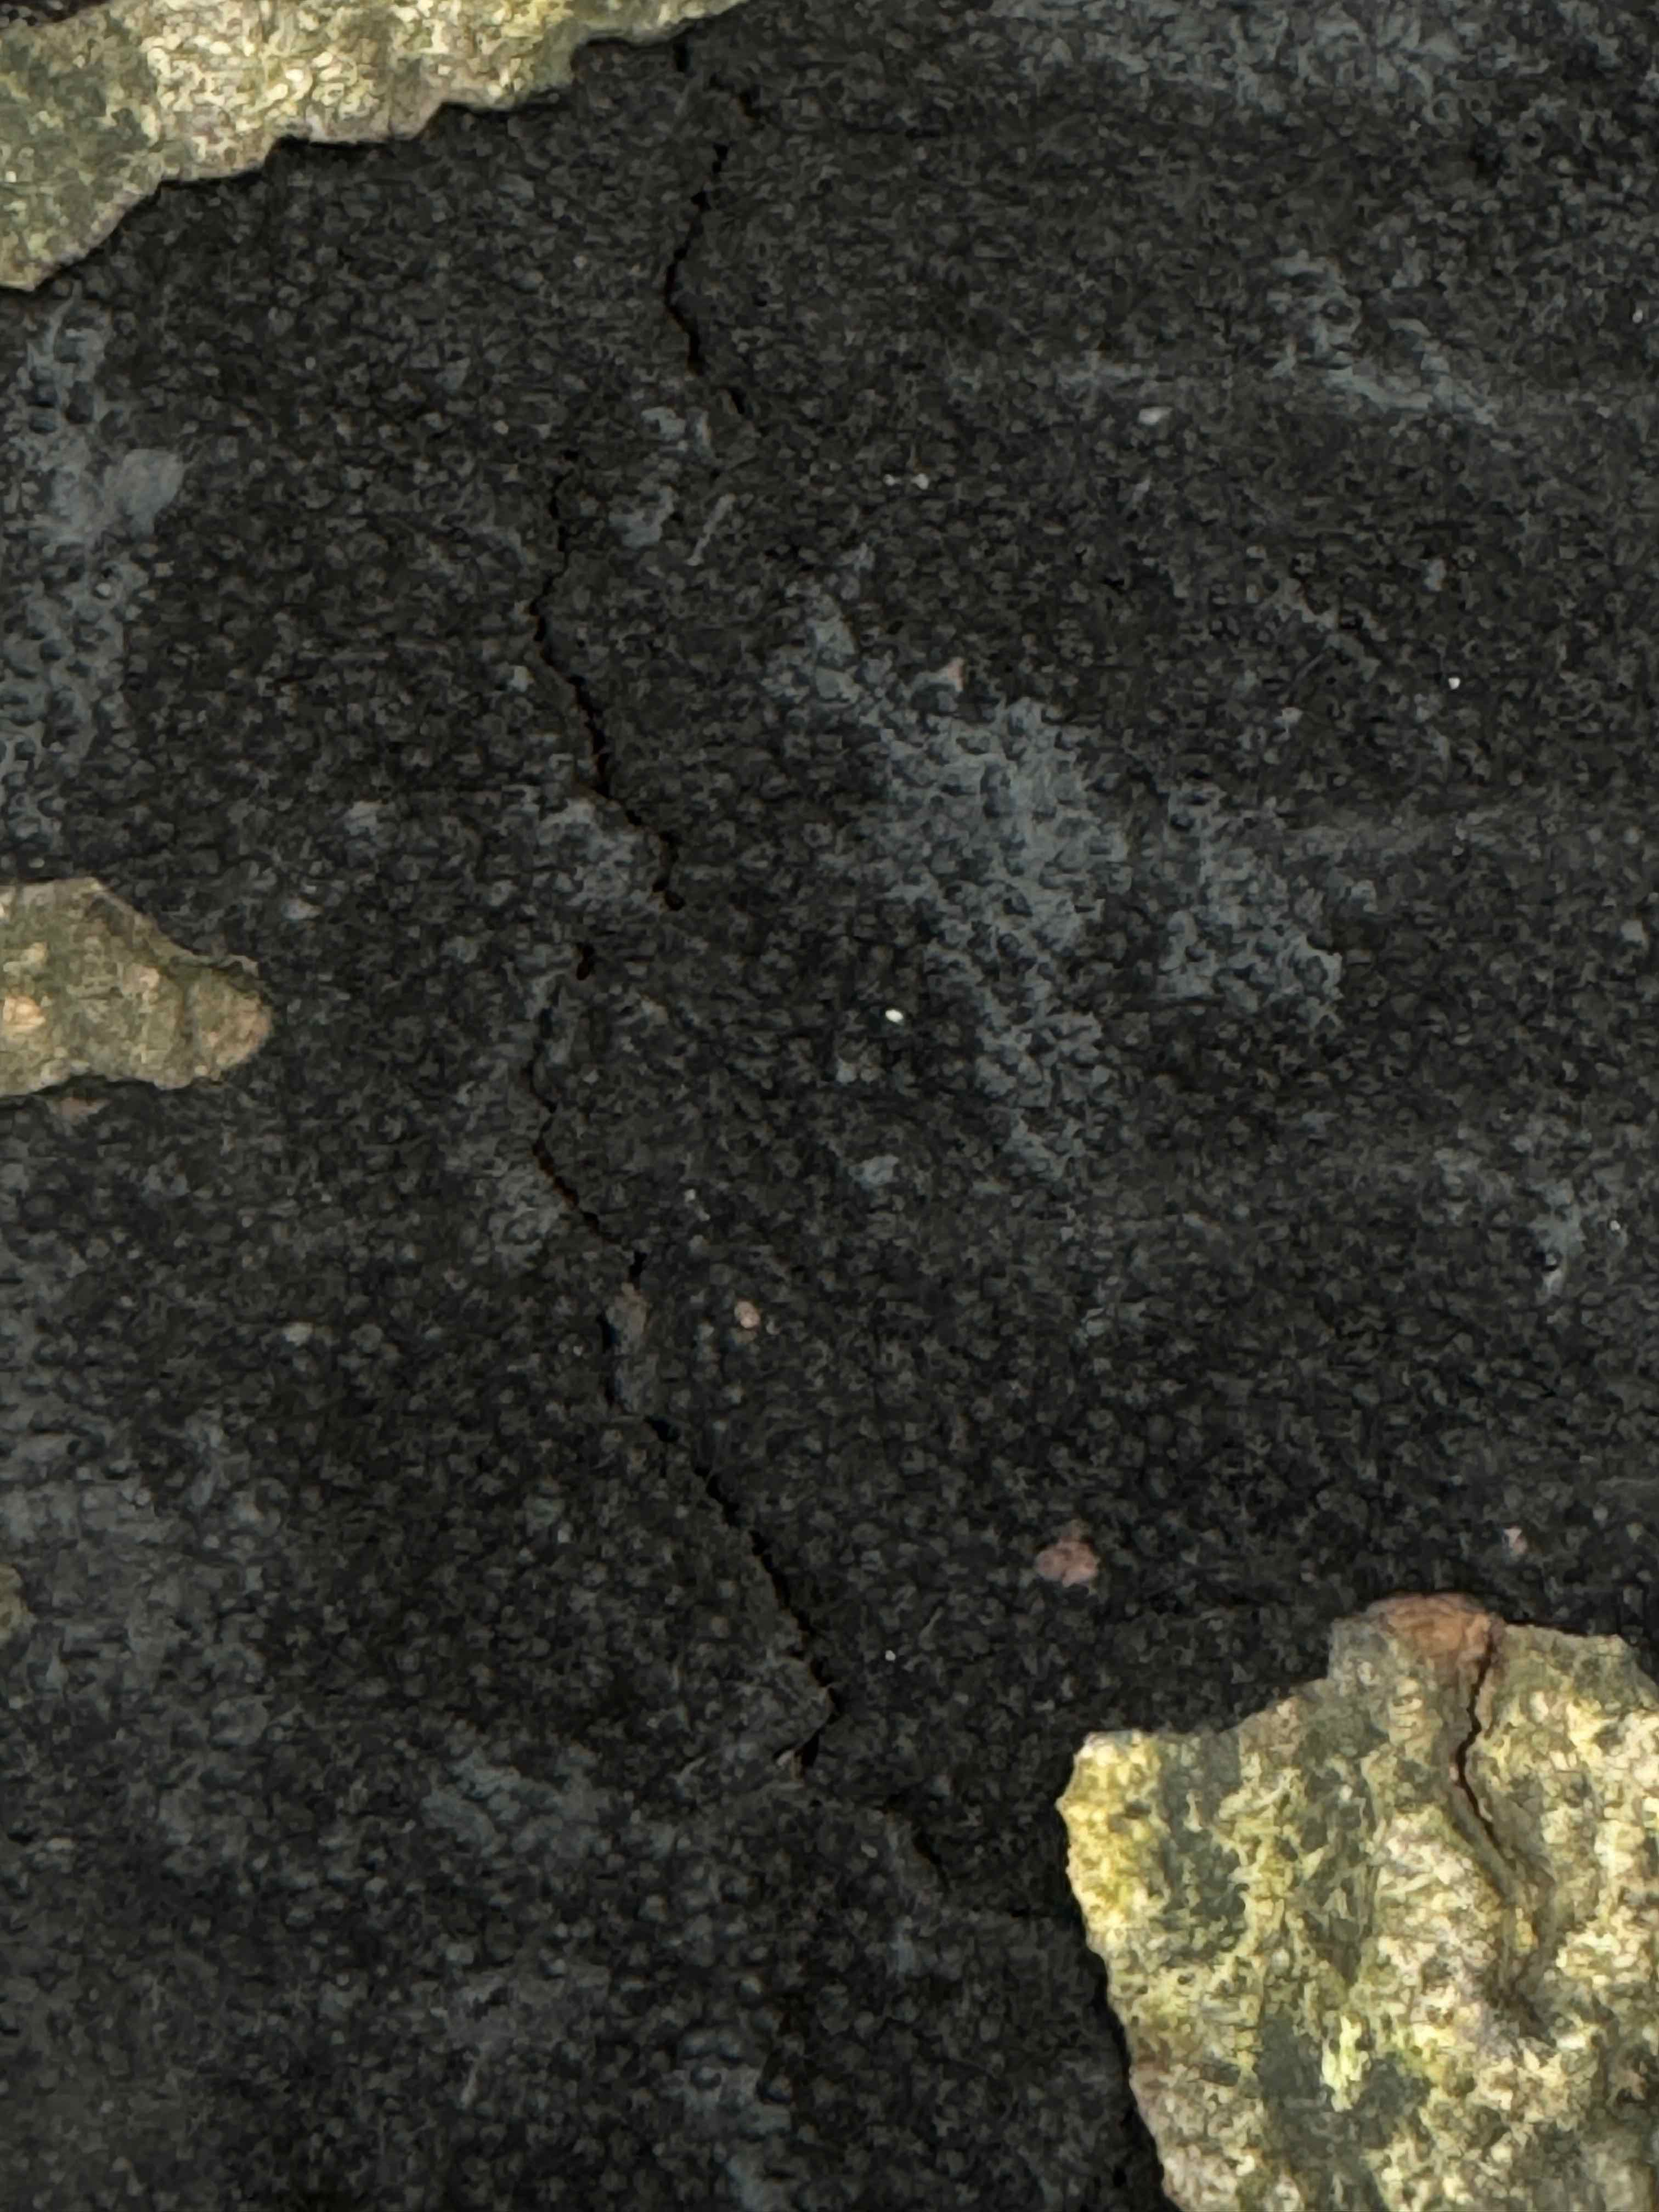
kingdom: Fungi
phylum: Ascomycota
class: Sordariomycetes
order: Xylariales
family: Diatrypaceae
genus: Eutypa
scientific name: Eutypa spinosa
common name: grov kulskorpe
